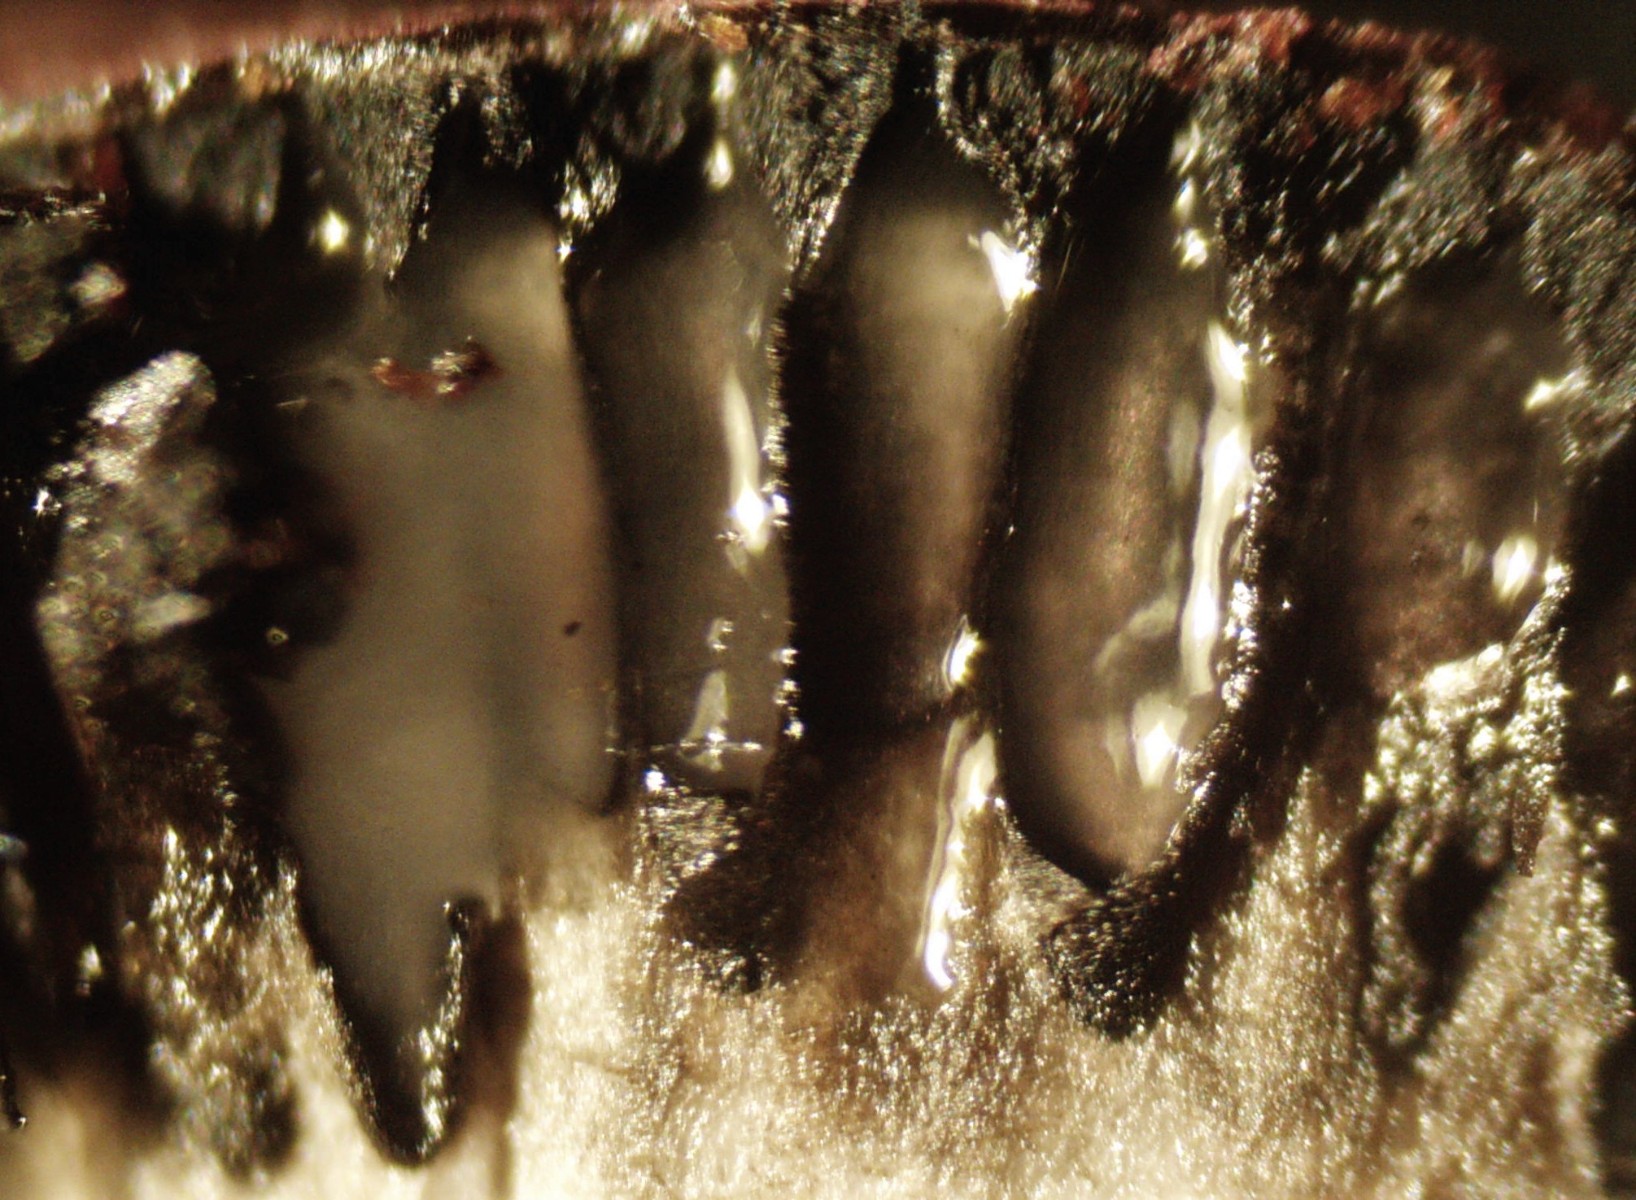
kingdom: Fungi
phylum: Ascomycota
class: Sordariomycetes
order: Xylariales
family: Hypoxylaceae
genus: Daldinia
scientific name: Daldinia concentrica
